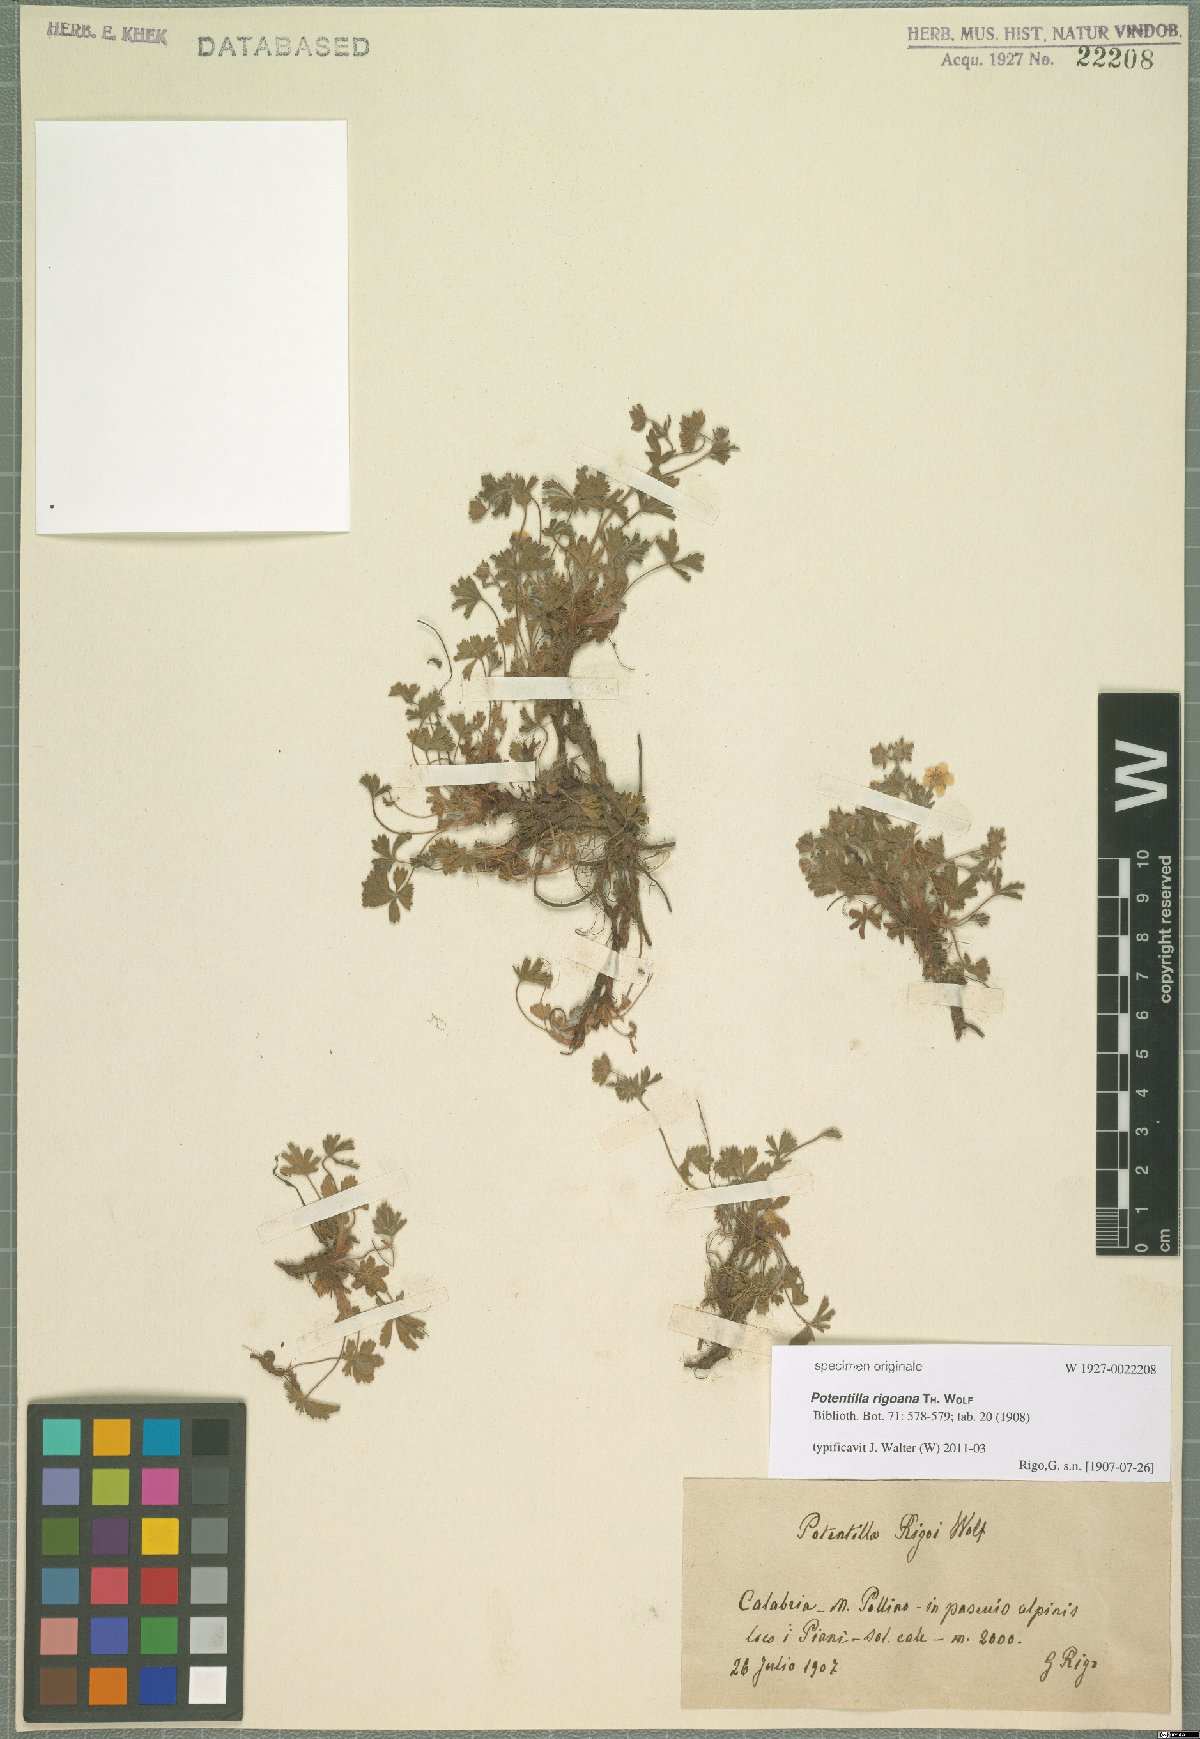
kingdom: Plantae
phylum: Tracheophyta
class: Magnoliopsida
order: Rosales
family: Rosaceae
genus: Potentilla
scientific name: Potentilla rigoana
